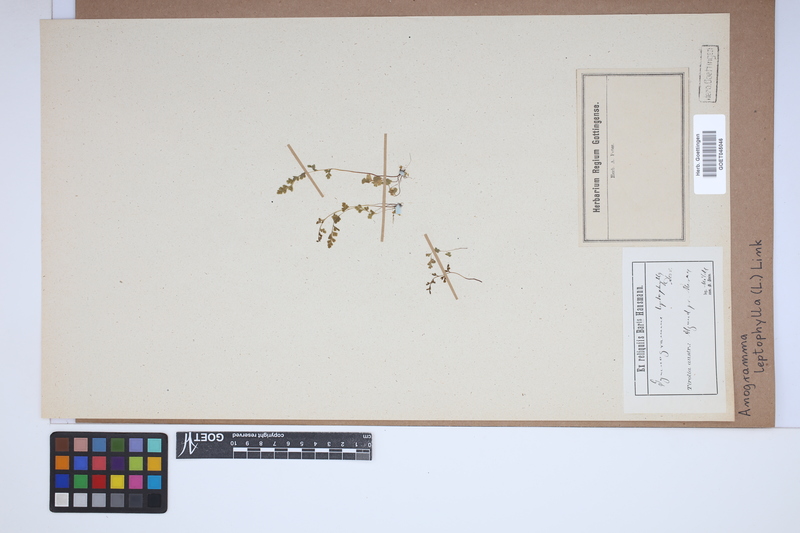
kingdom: Plantae
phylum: Tracheophyta
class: Polypodiopsida
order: Polypodiales
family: Pteridaceae
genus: Anogramma
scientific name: Anogramma leptophylla
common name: Jersey fern
